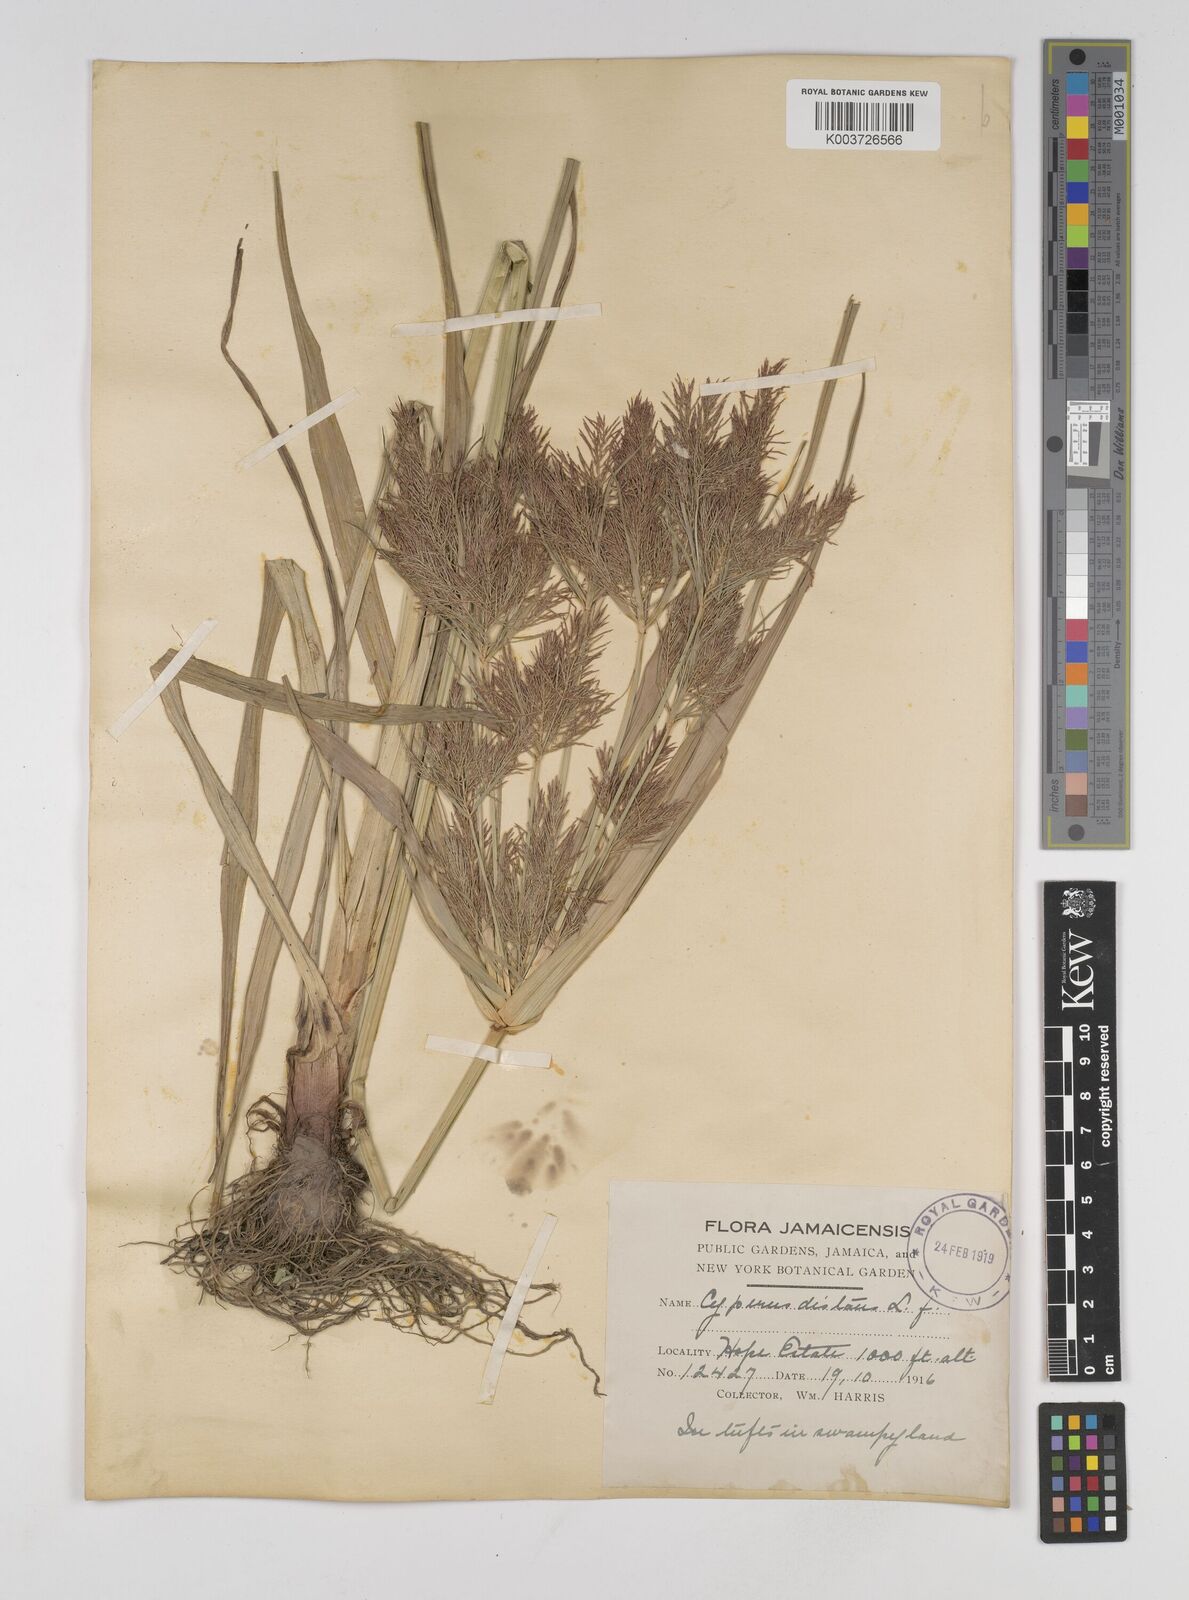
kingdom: Plantae
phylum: Tracheophyta
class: Liliopsida
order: Poales
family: Cyperaceae
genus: Cyperus
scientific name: Cyperus distans
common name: Slender cyperus
